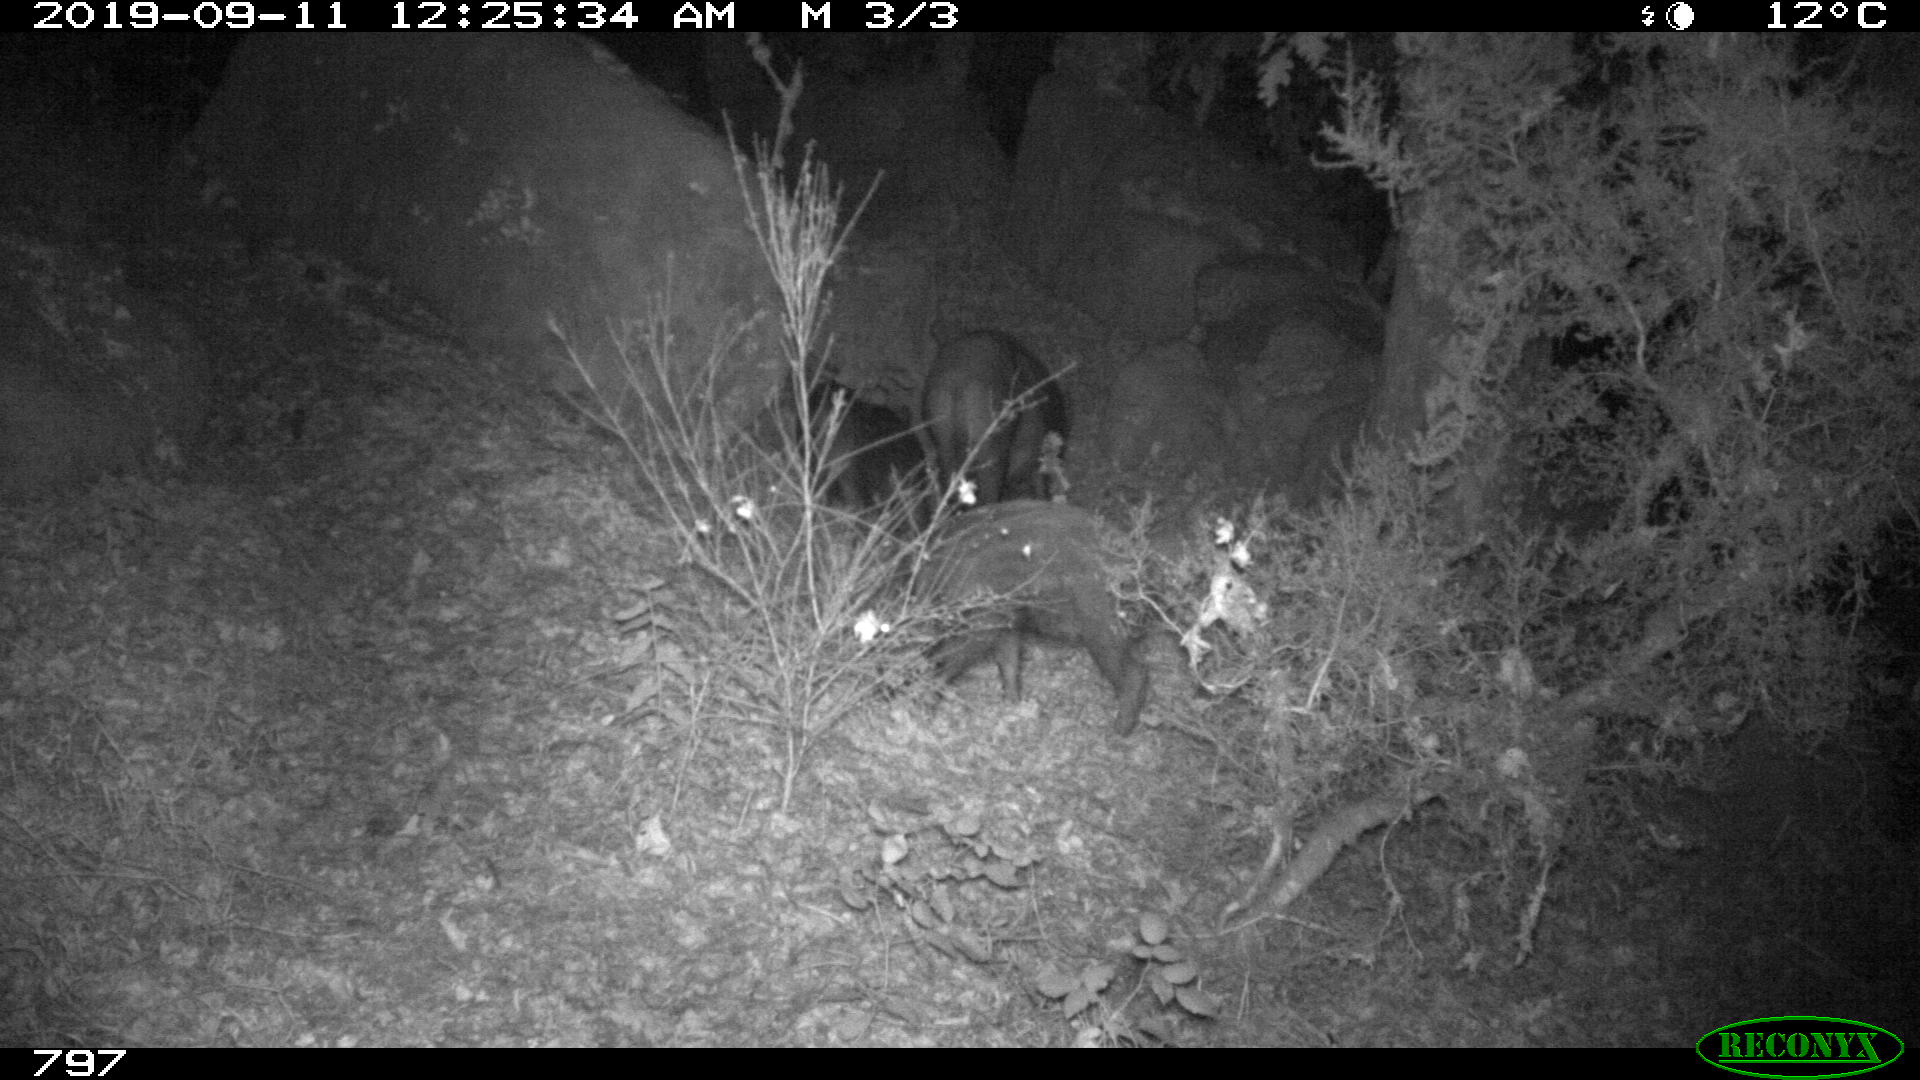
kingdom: Animalia
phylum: Chordata
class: Mammalia
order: Artiodactyla
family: Suidae
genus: Sus
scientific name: Sus scrofa
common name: Wild boar
